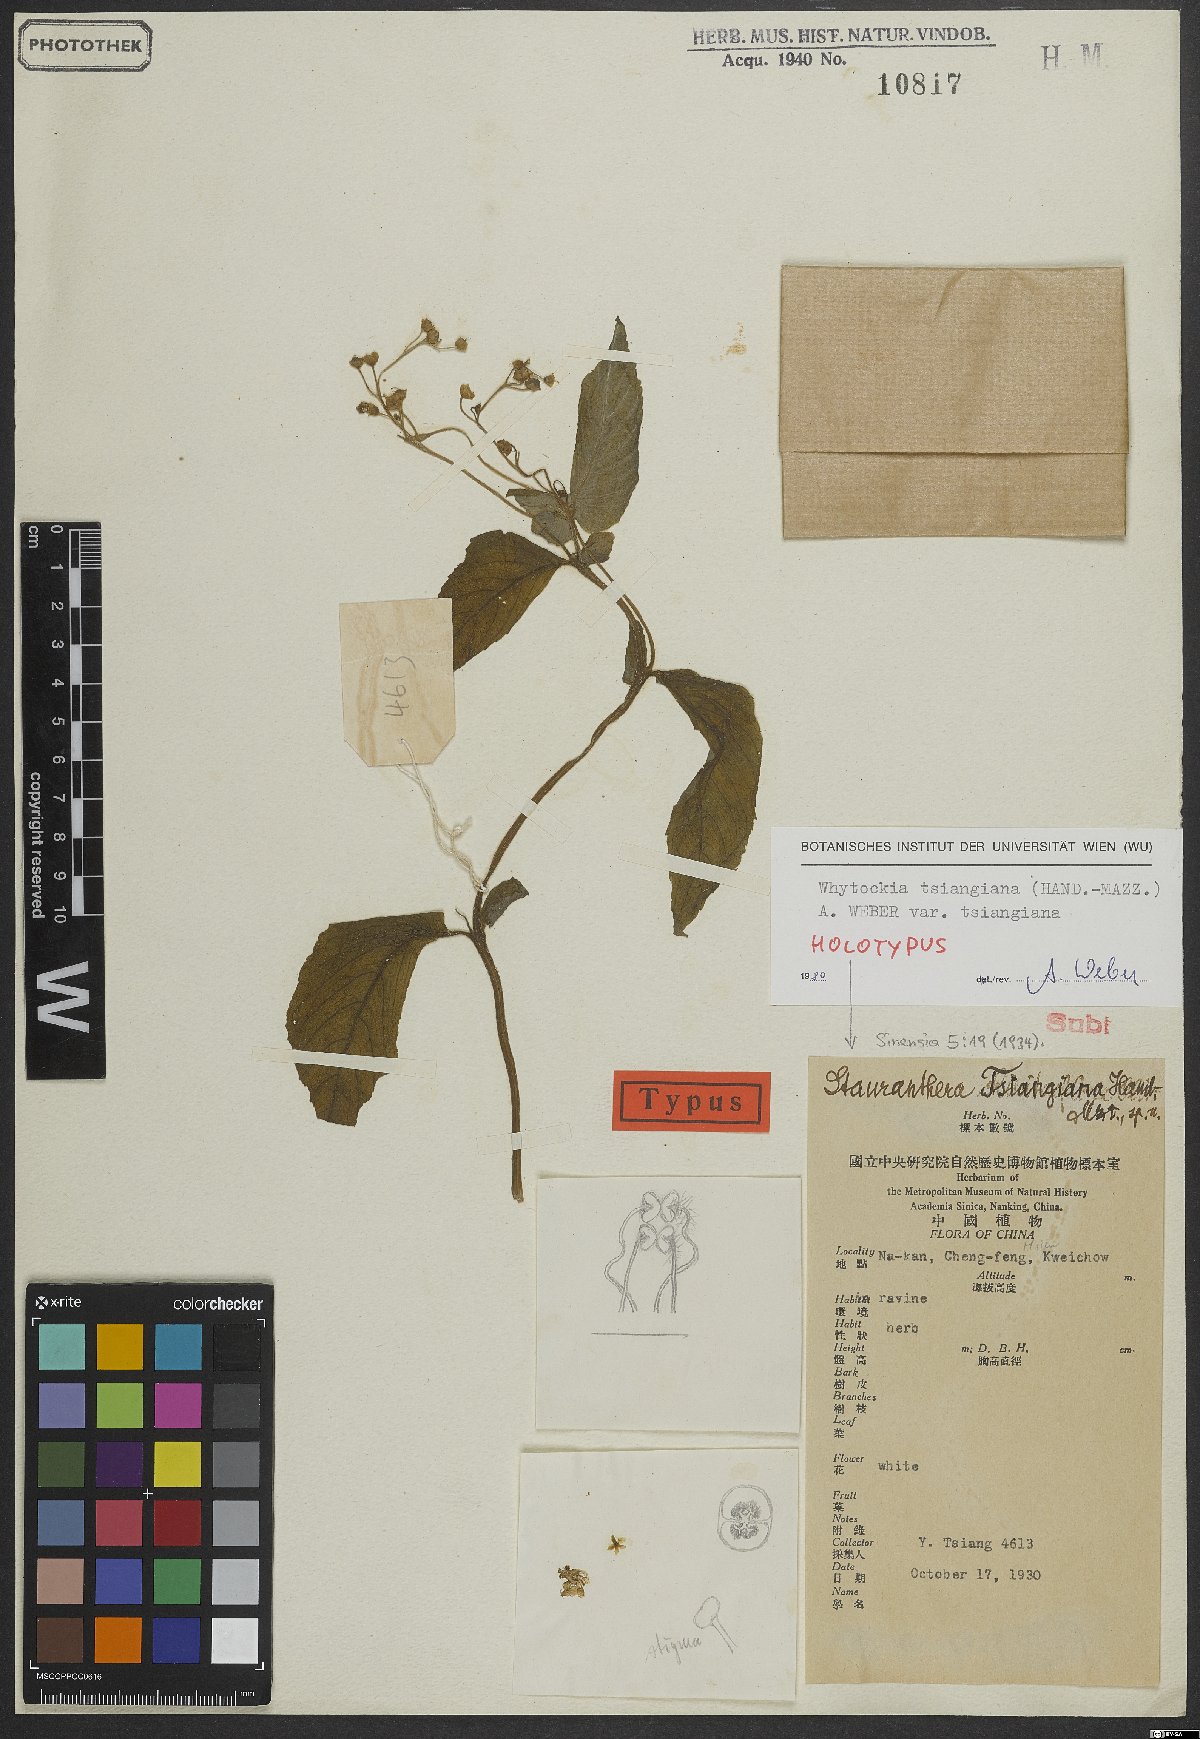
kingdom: Plantae
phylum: Tracheophyta
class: Magnoliopsida
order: Lamiales
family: Gesneriaceae
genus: Whytockia
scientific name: Whytockia tsiangiana
